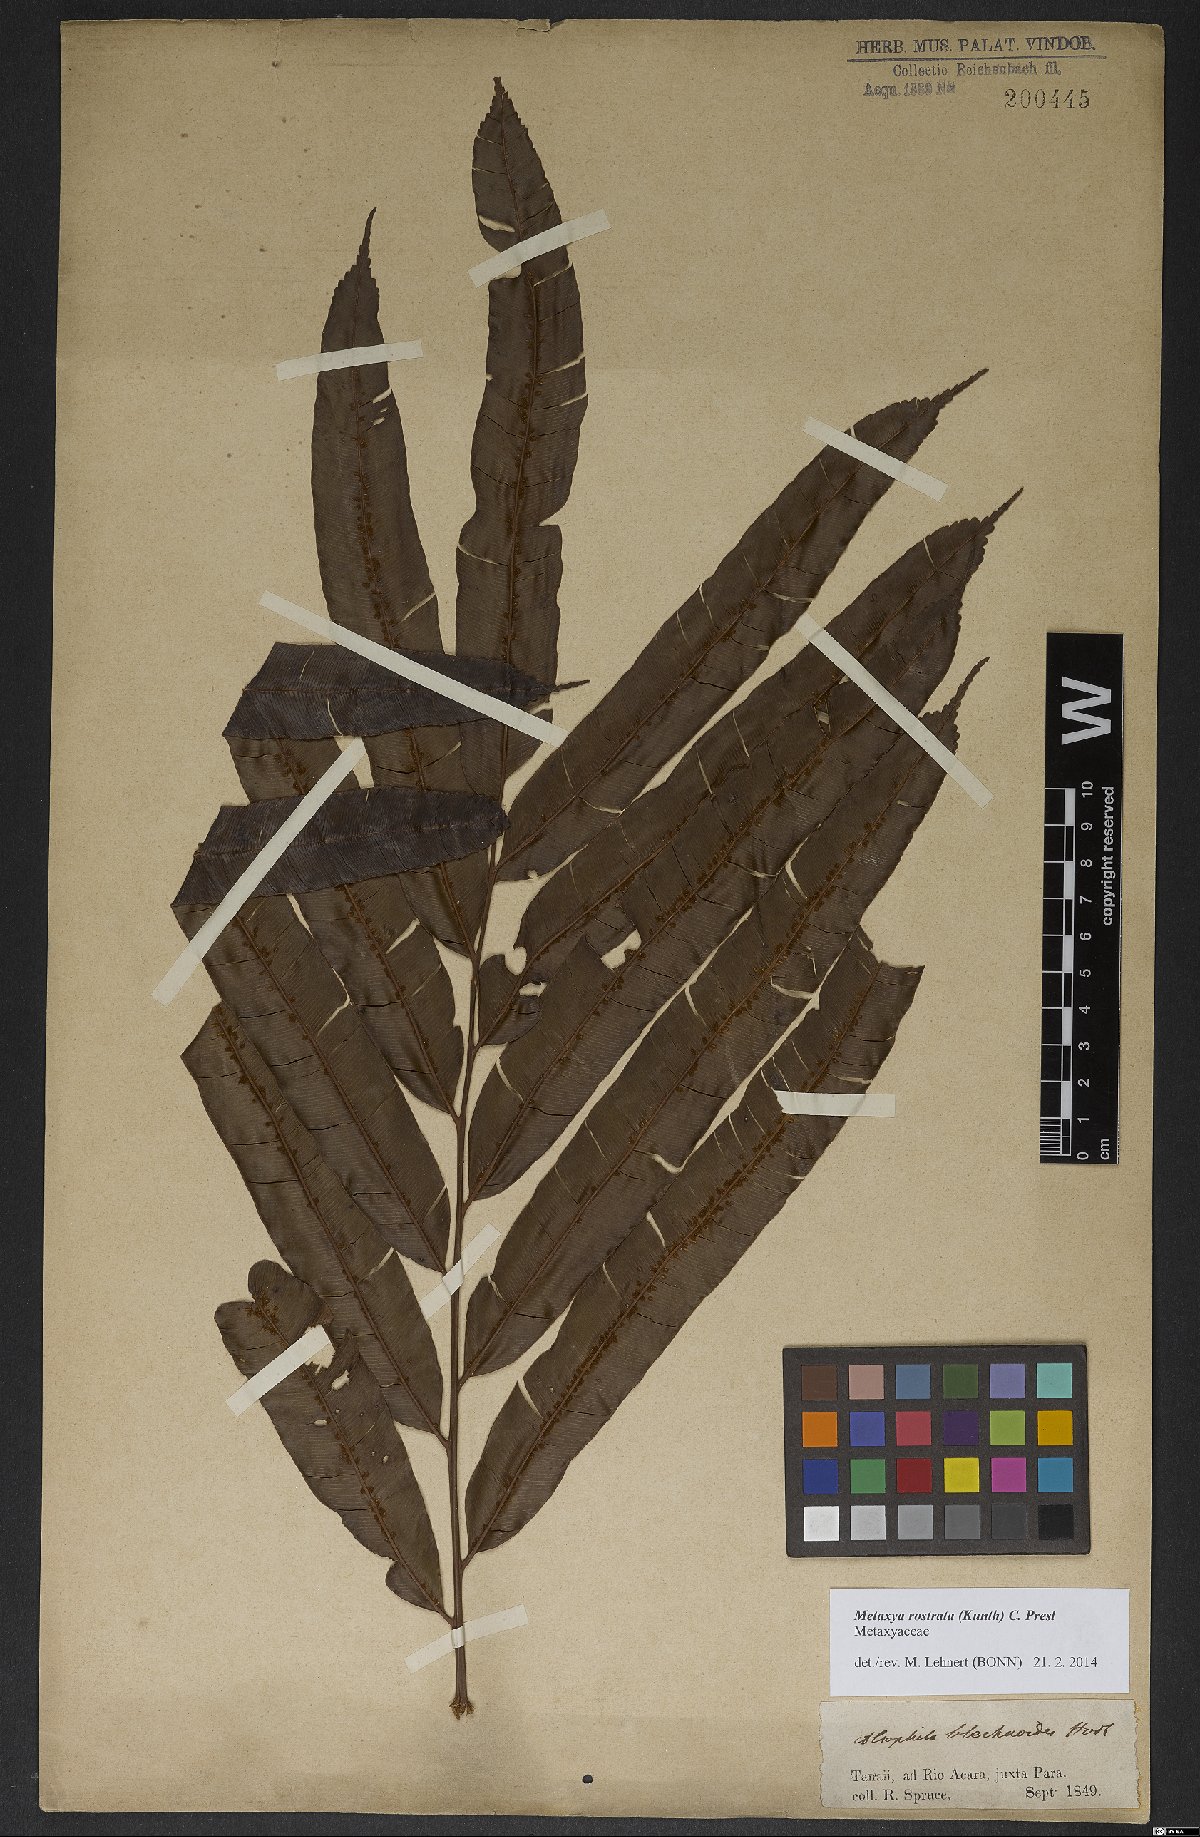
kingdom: Plantae
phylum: Tracheophyta
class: Polypodiopsida
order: Cyatheales
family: Metaxyaceae
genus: Metaxya
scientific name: Metaxya rostrata
